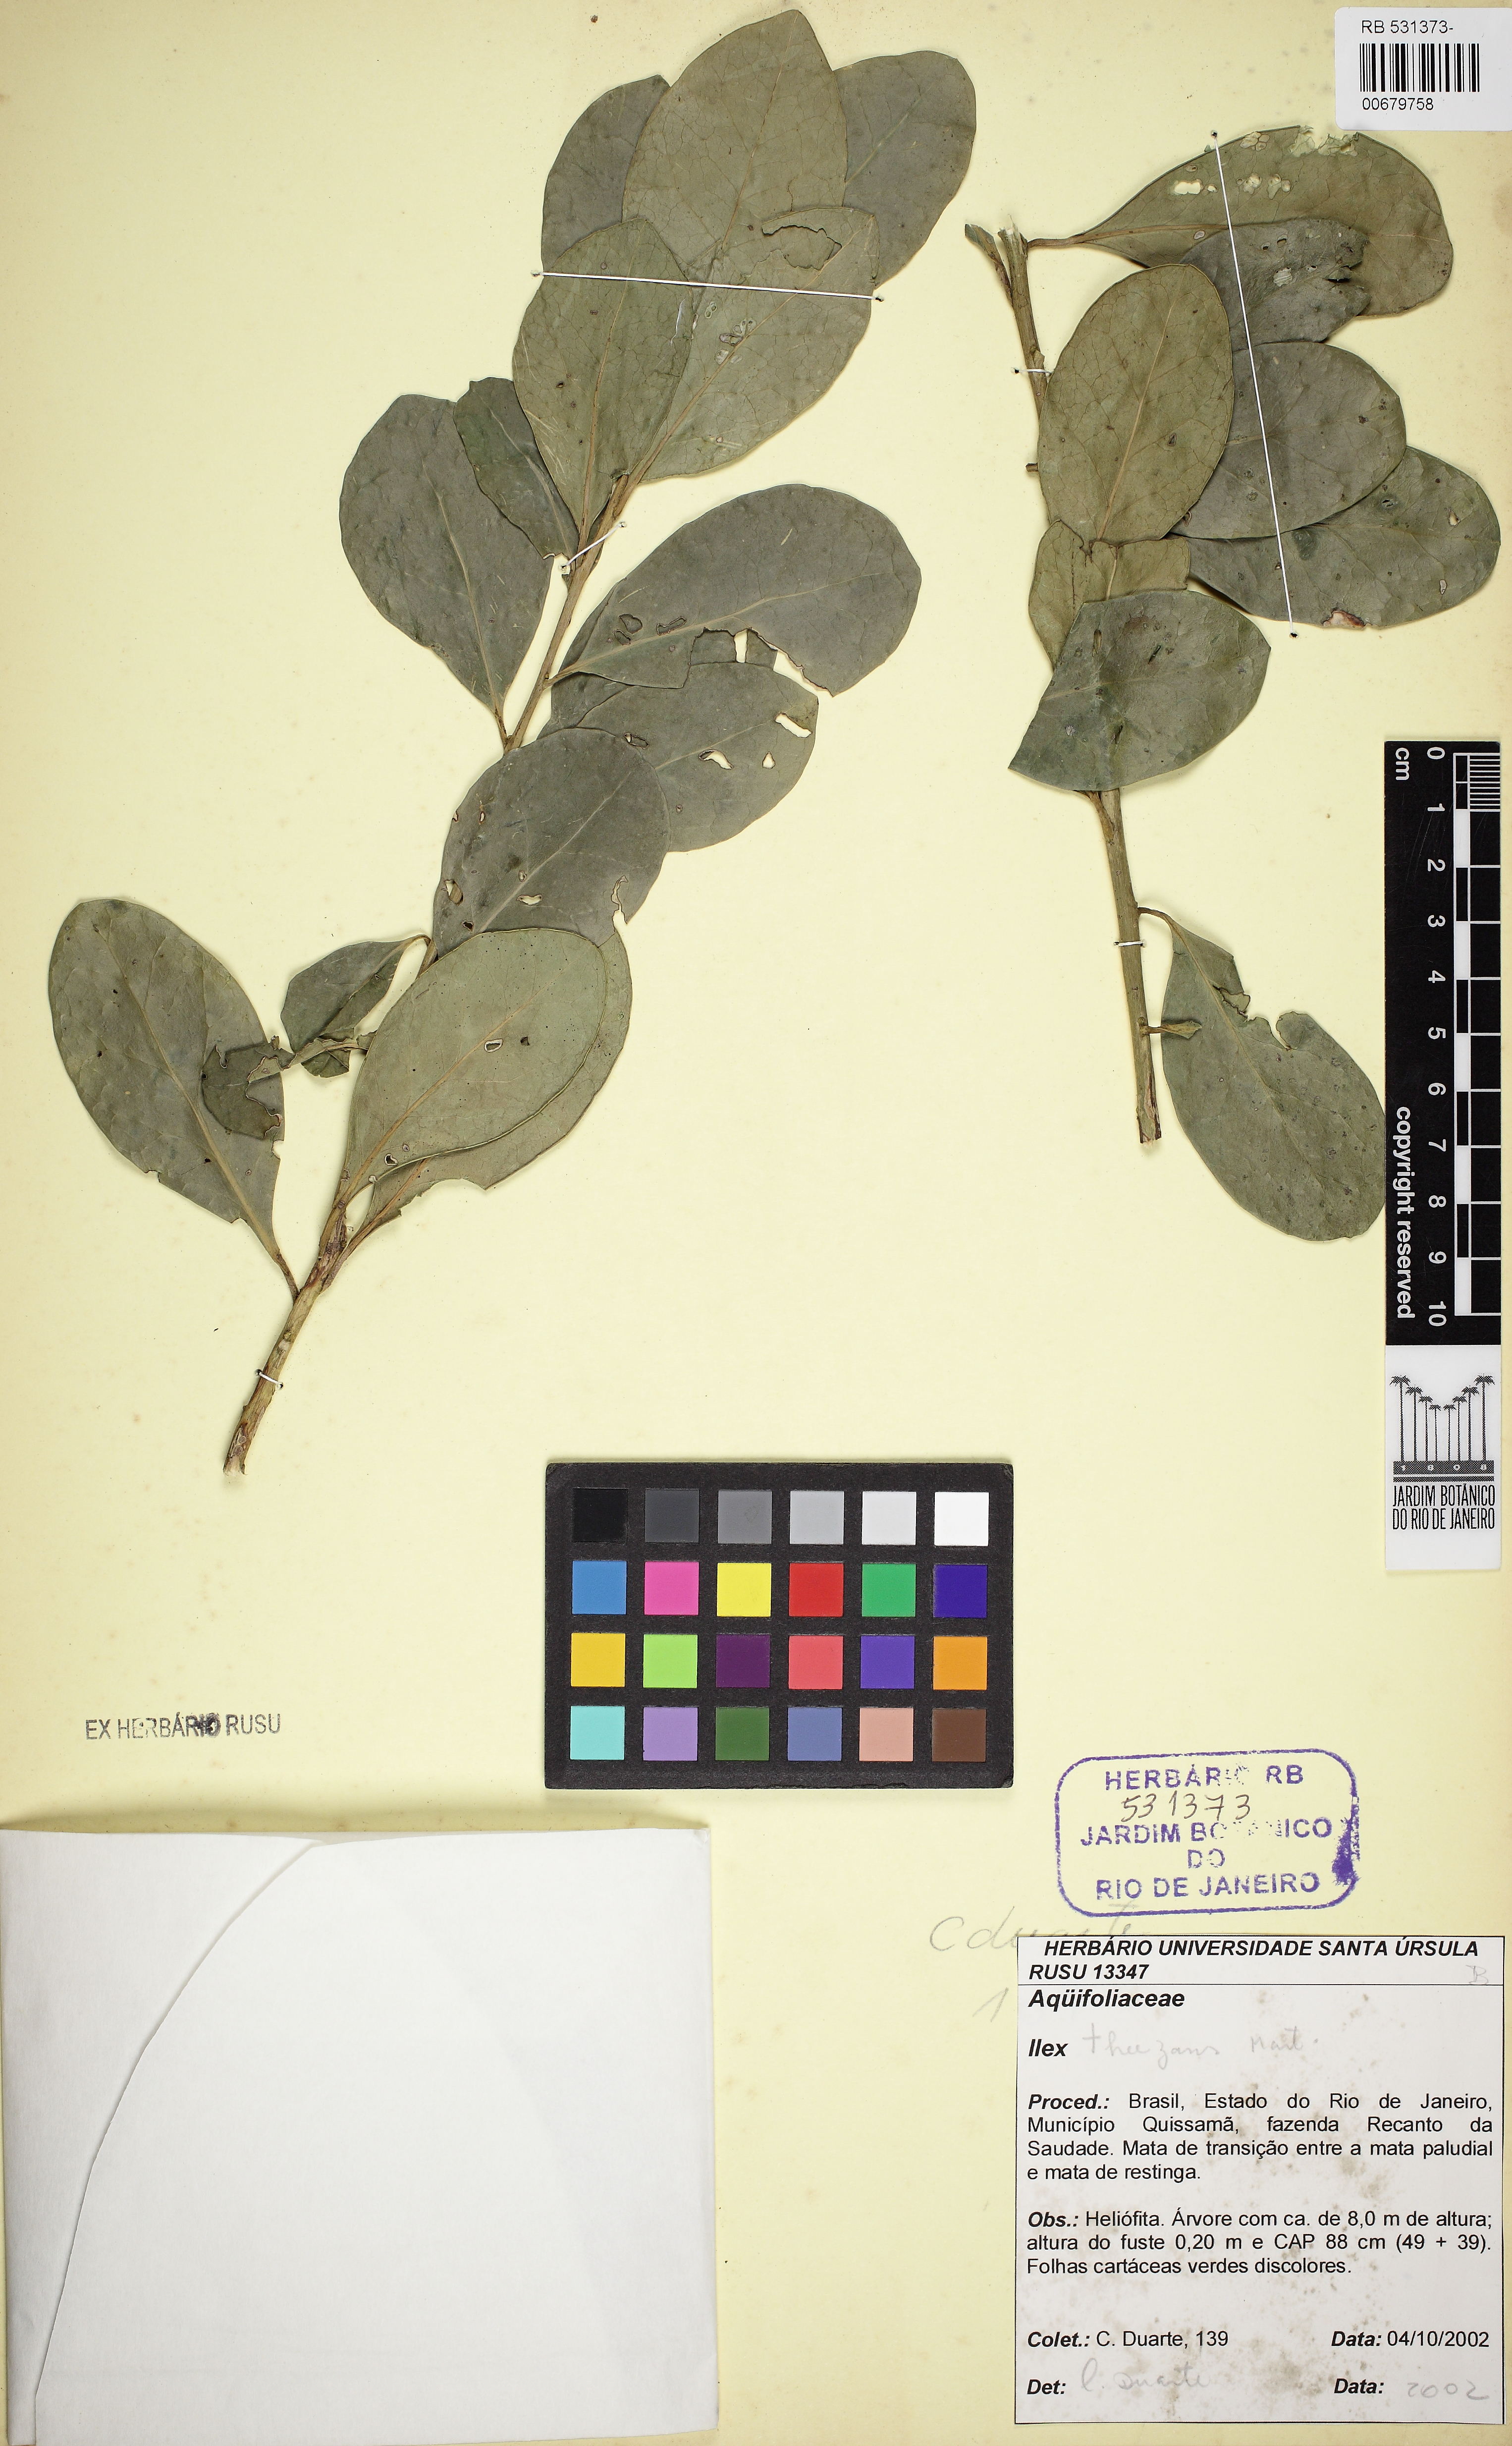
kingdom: Plantae
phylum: Tracheophyta
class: Magnoliopsida
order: Aquifoliales
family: Aquifoliaceae
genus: Ilex
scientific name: Ilex
